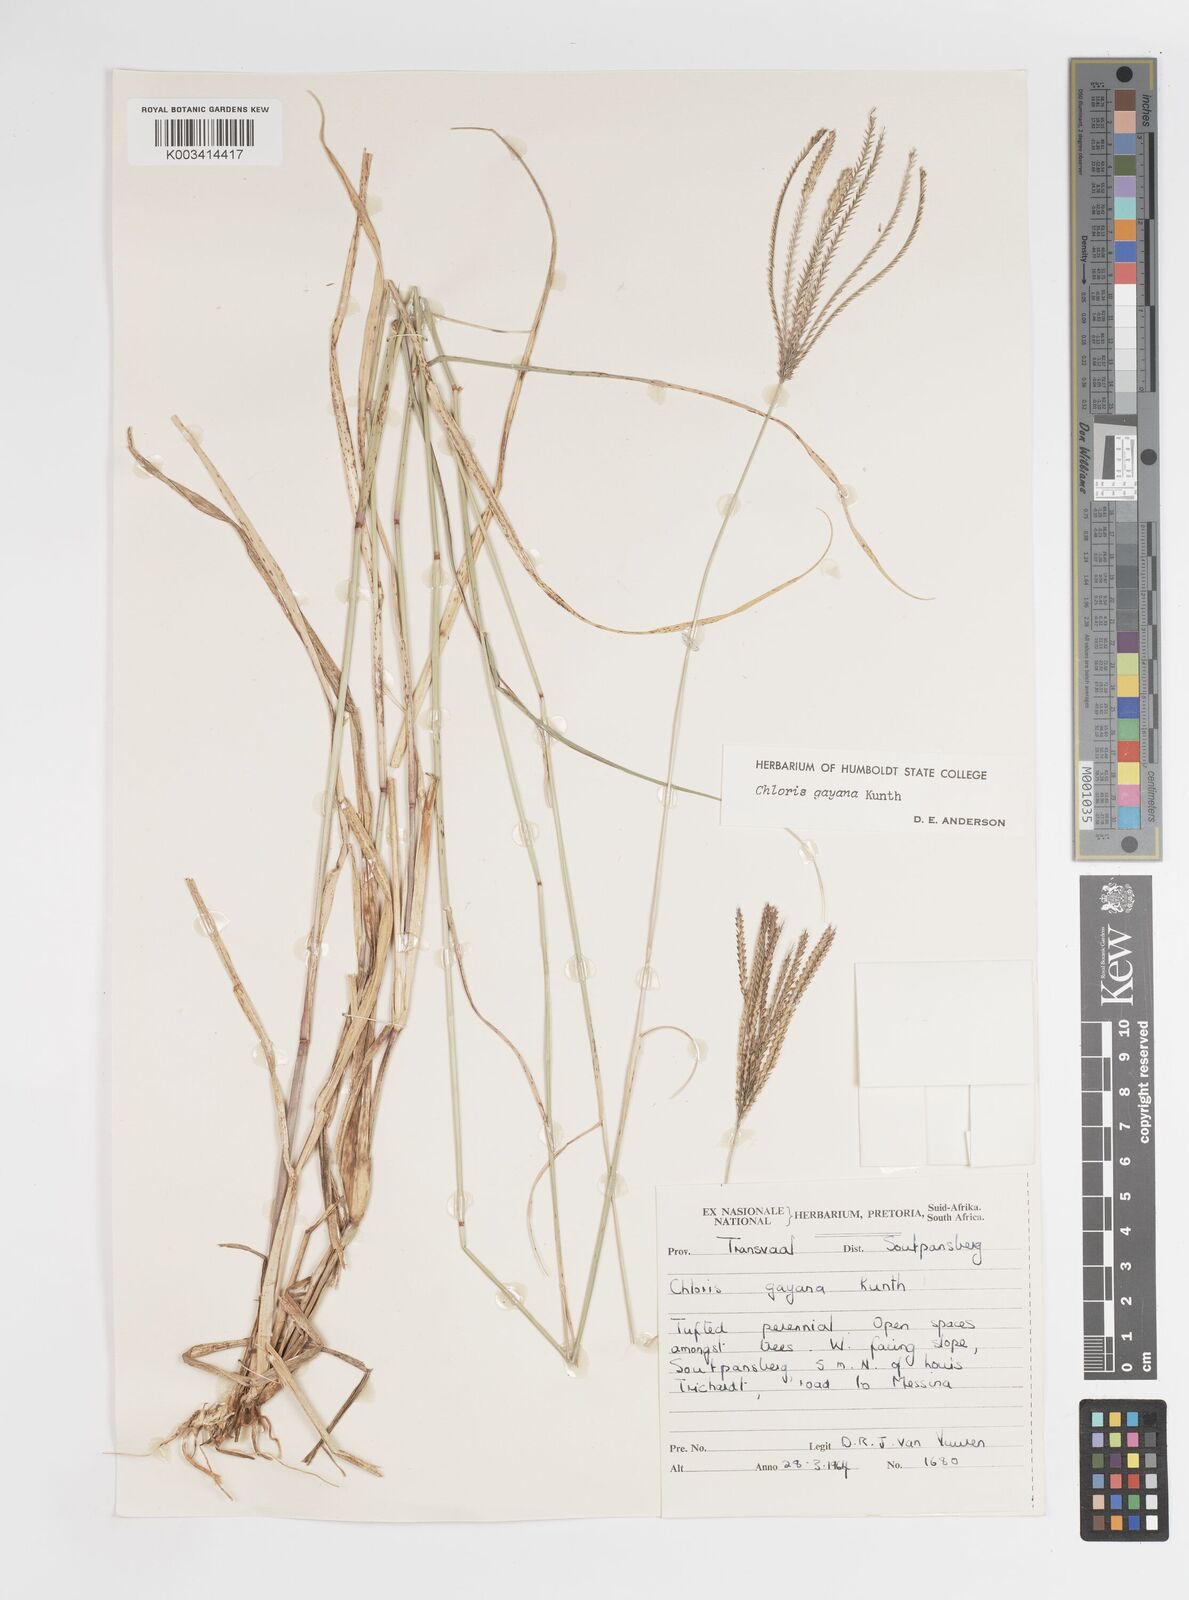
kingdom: Plantae
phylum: Tracheophyta
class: Liliopsida
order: Poales
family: Poaceae
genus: Chloris
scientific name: Chloris gayana
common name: Rhodes grass
